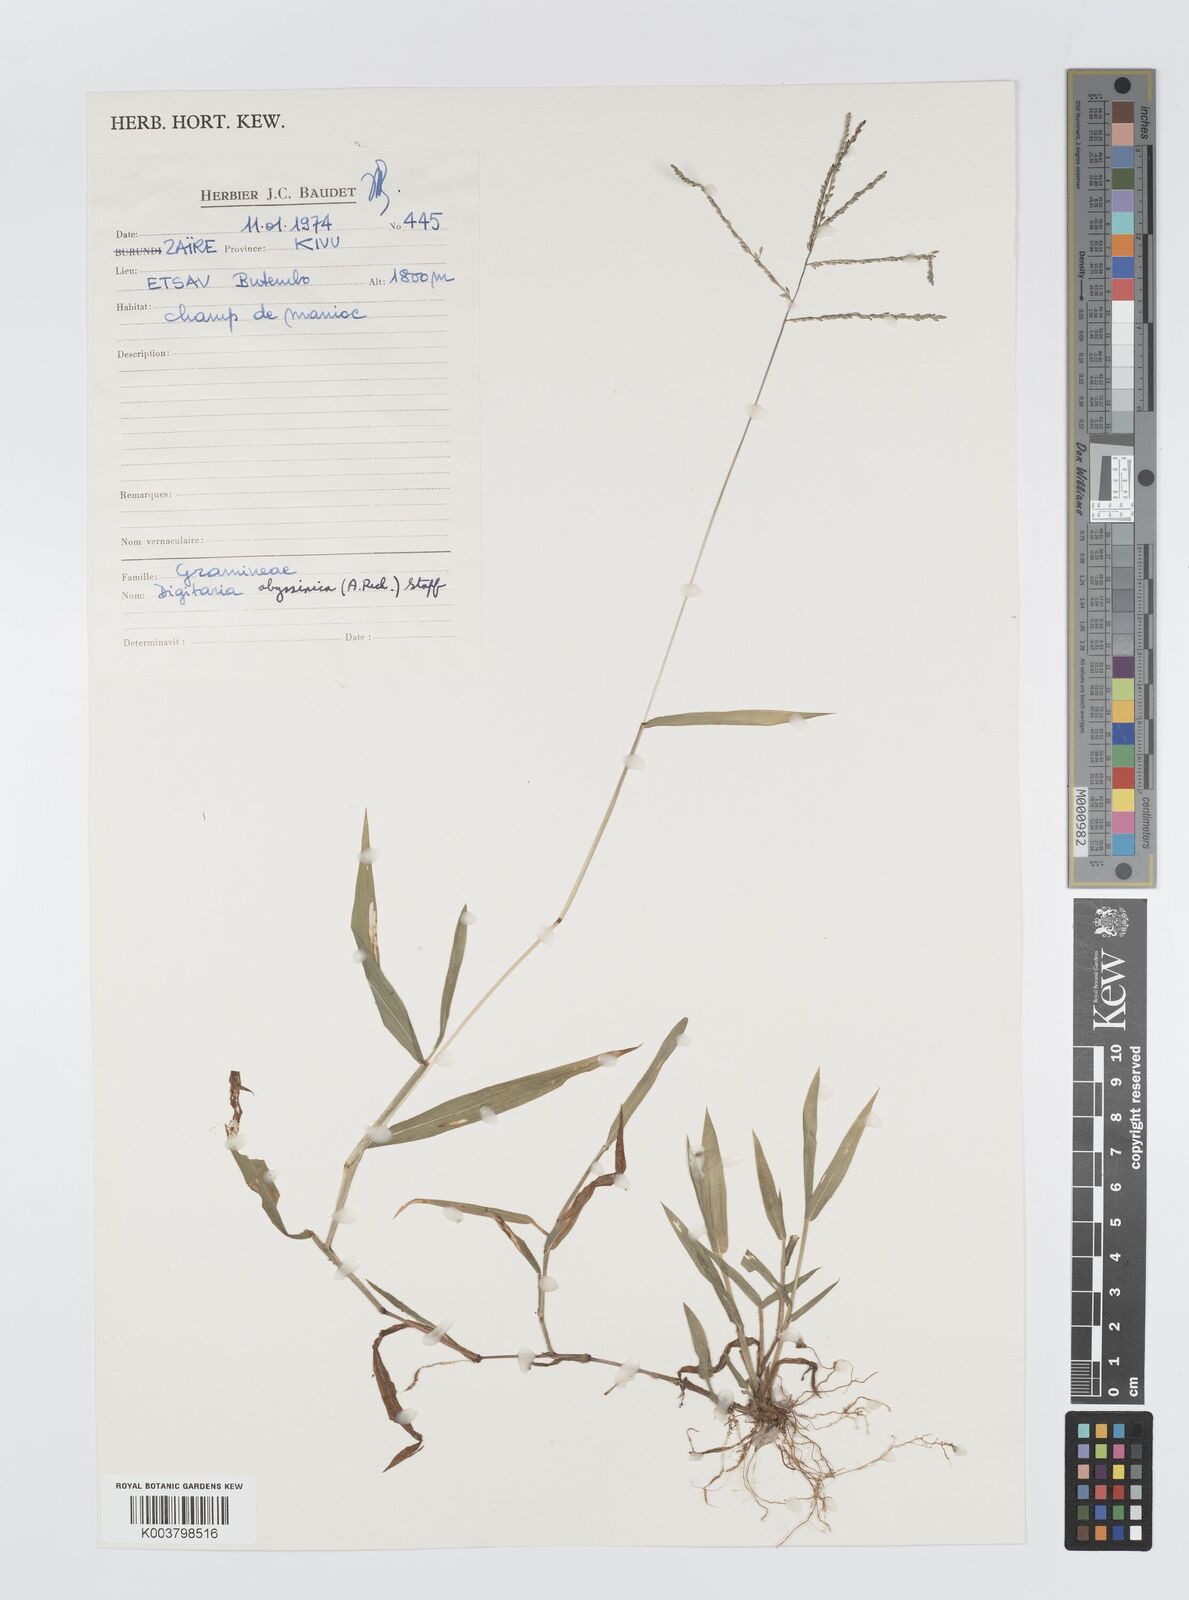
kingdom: Plantae
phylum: Tracheophyta
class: Liliopsida
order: Poales
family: Poaceae
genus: Digitaria
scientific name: Digitaria abyssinica
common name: African couchgrass
